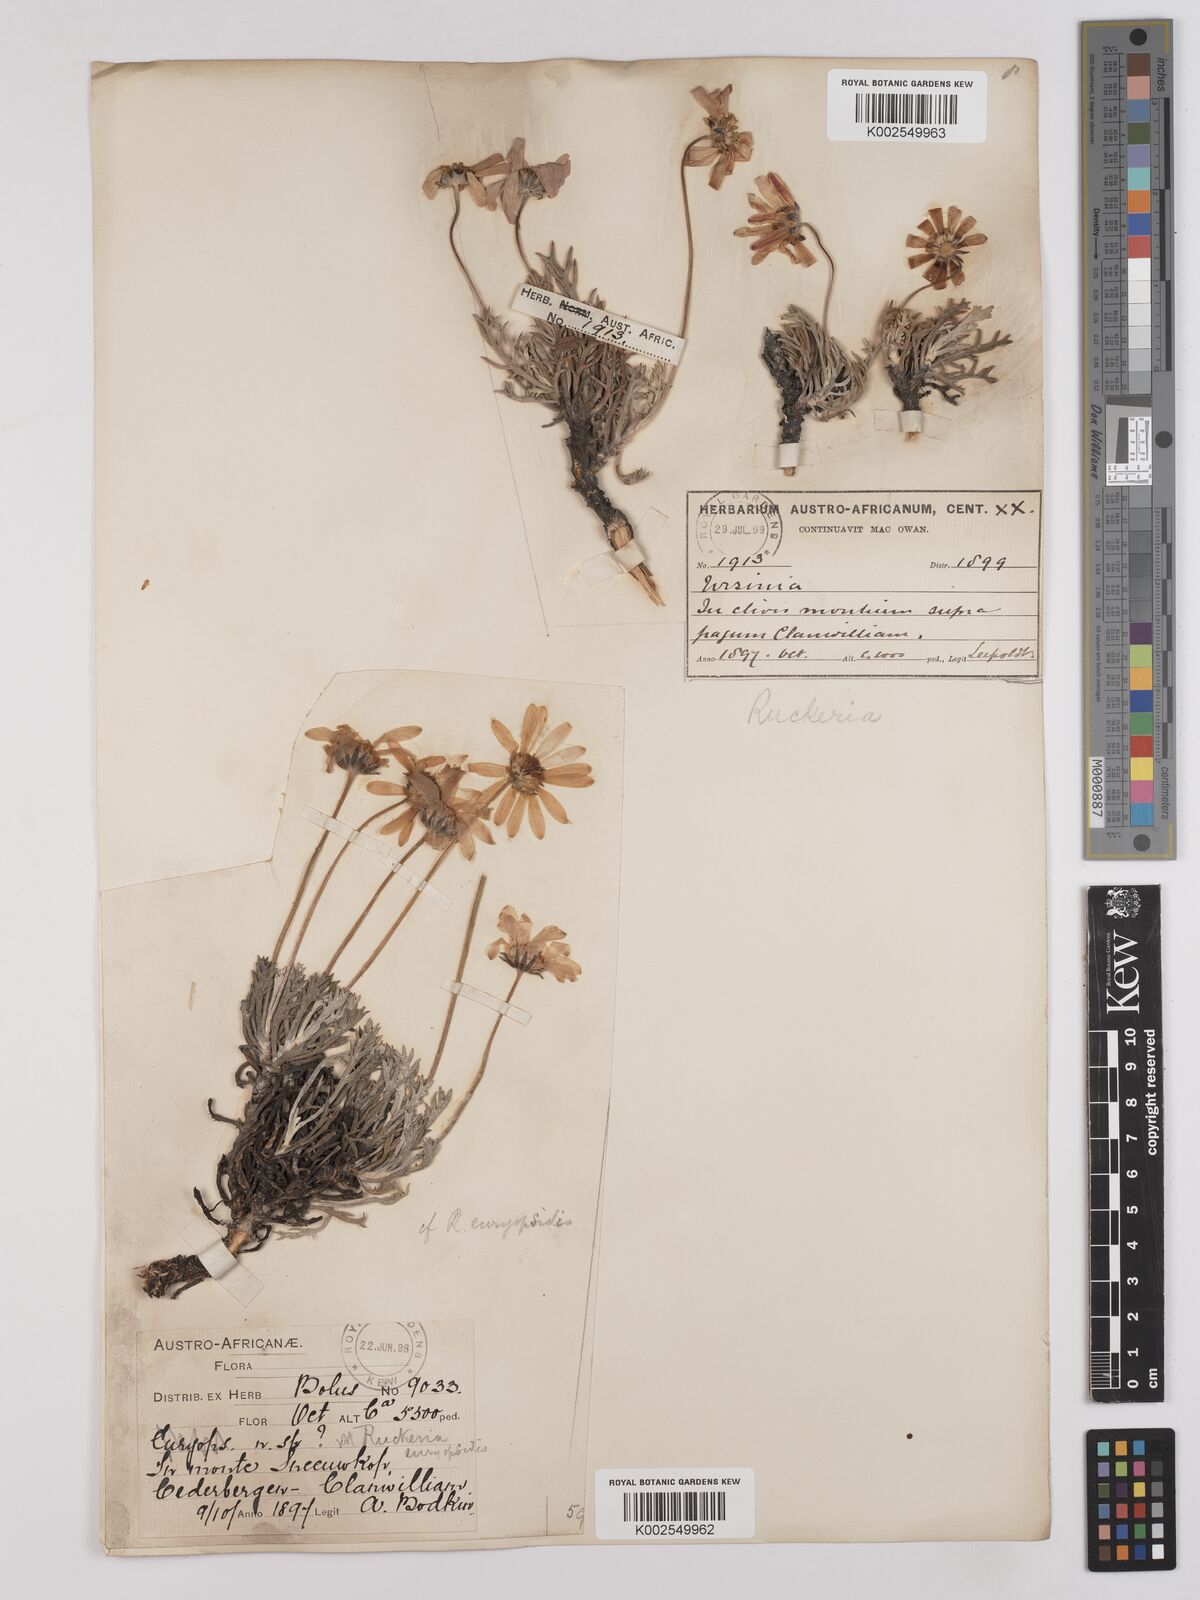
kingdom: Plantae
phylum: Tracheophyta
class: Magnoliopsida
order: Asterales
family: Asteraceae
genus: Euryops
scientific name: Euryops euryopoides
